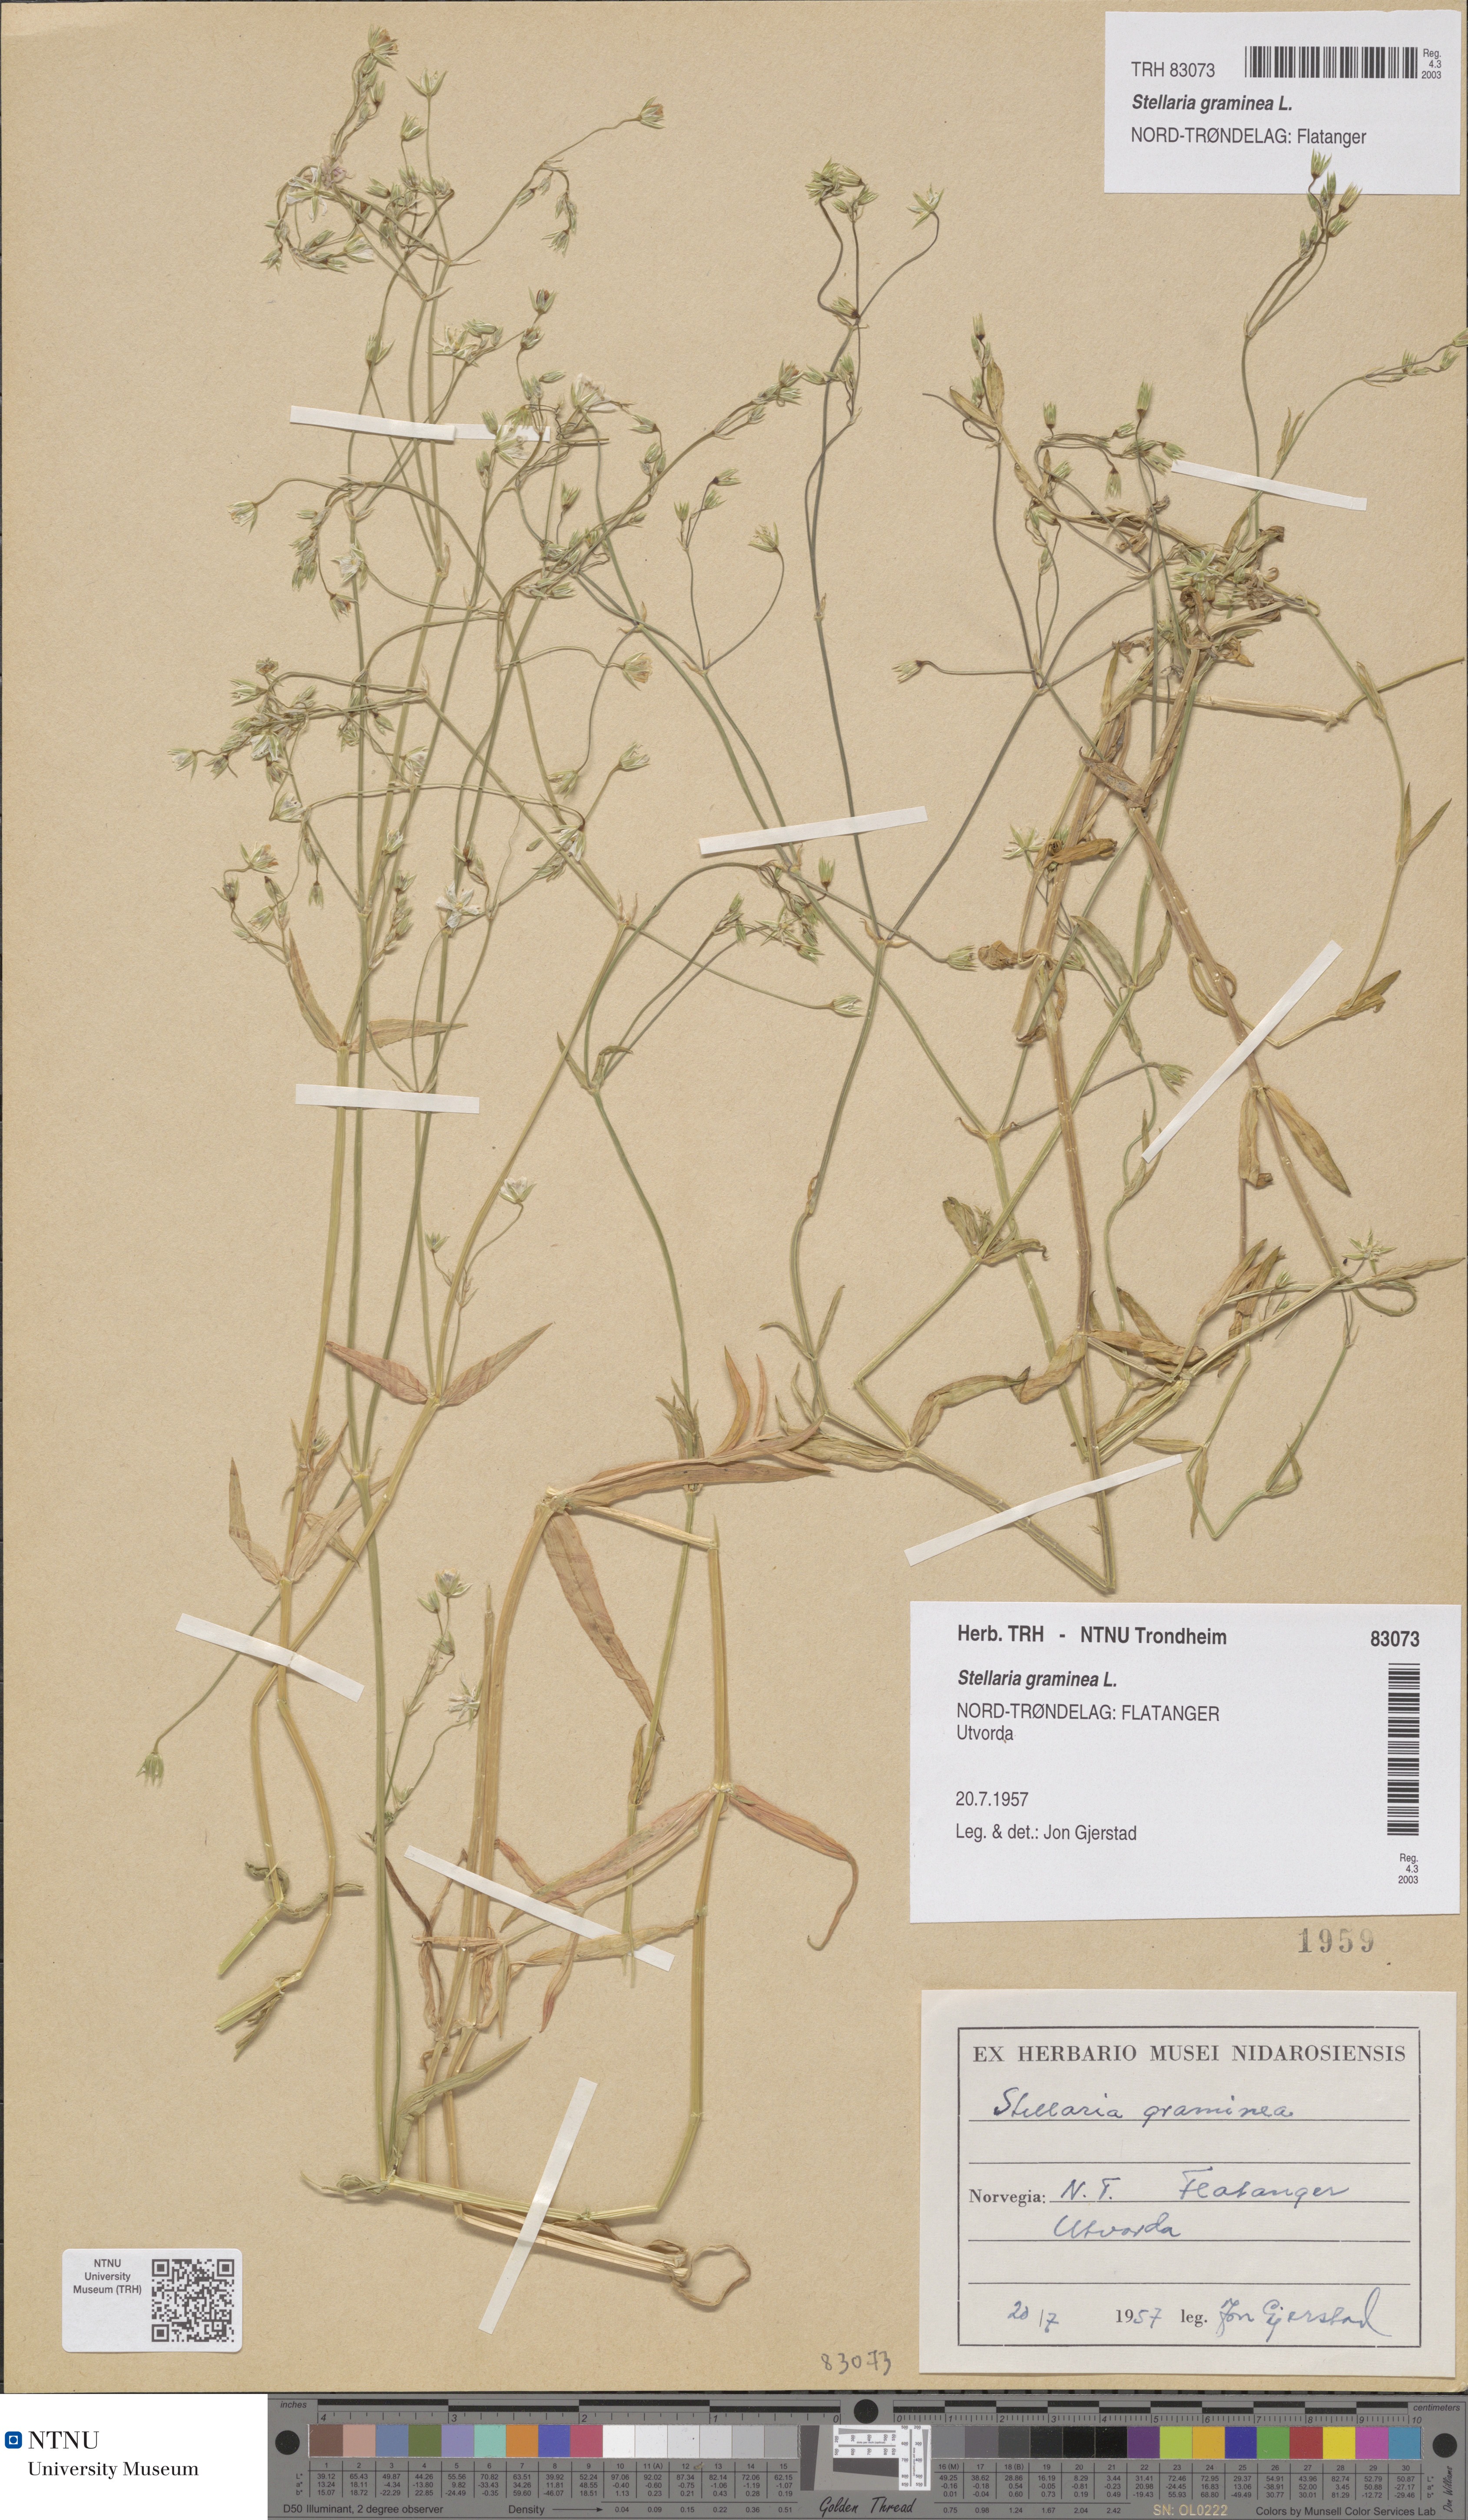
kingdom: Plantae
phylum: Tracheophyta
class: Magnoliopsida
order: Caryophyllales
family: Caryophyllaceae
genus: Stellaria
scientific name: Stellaria graminea
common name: Grass-like starwort
